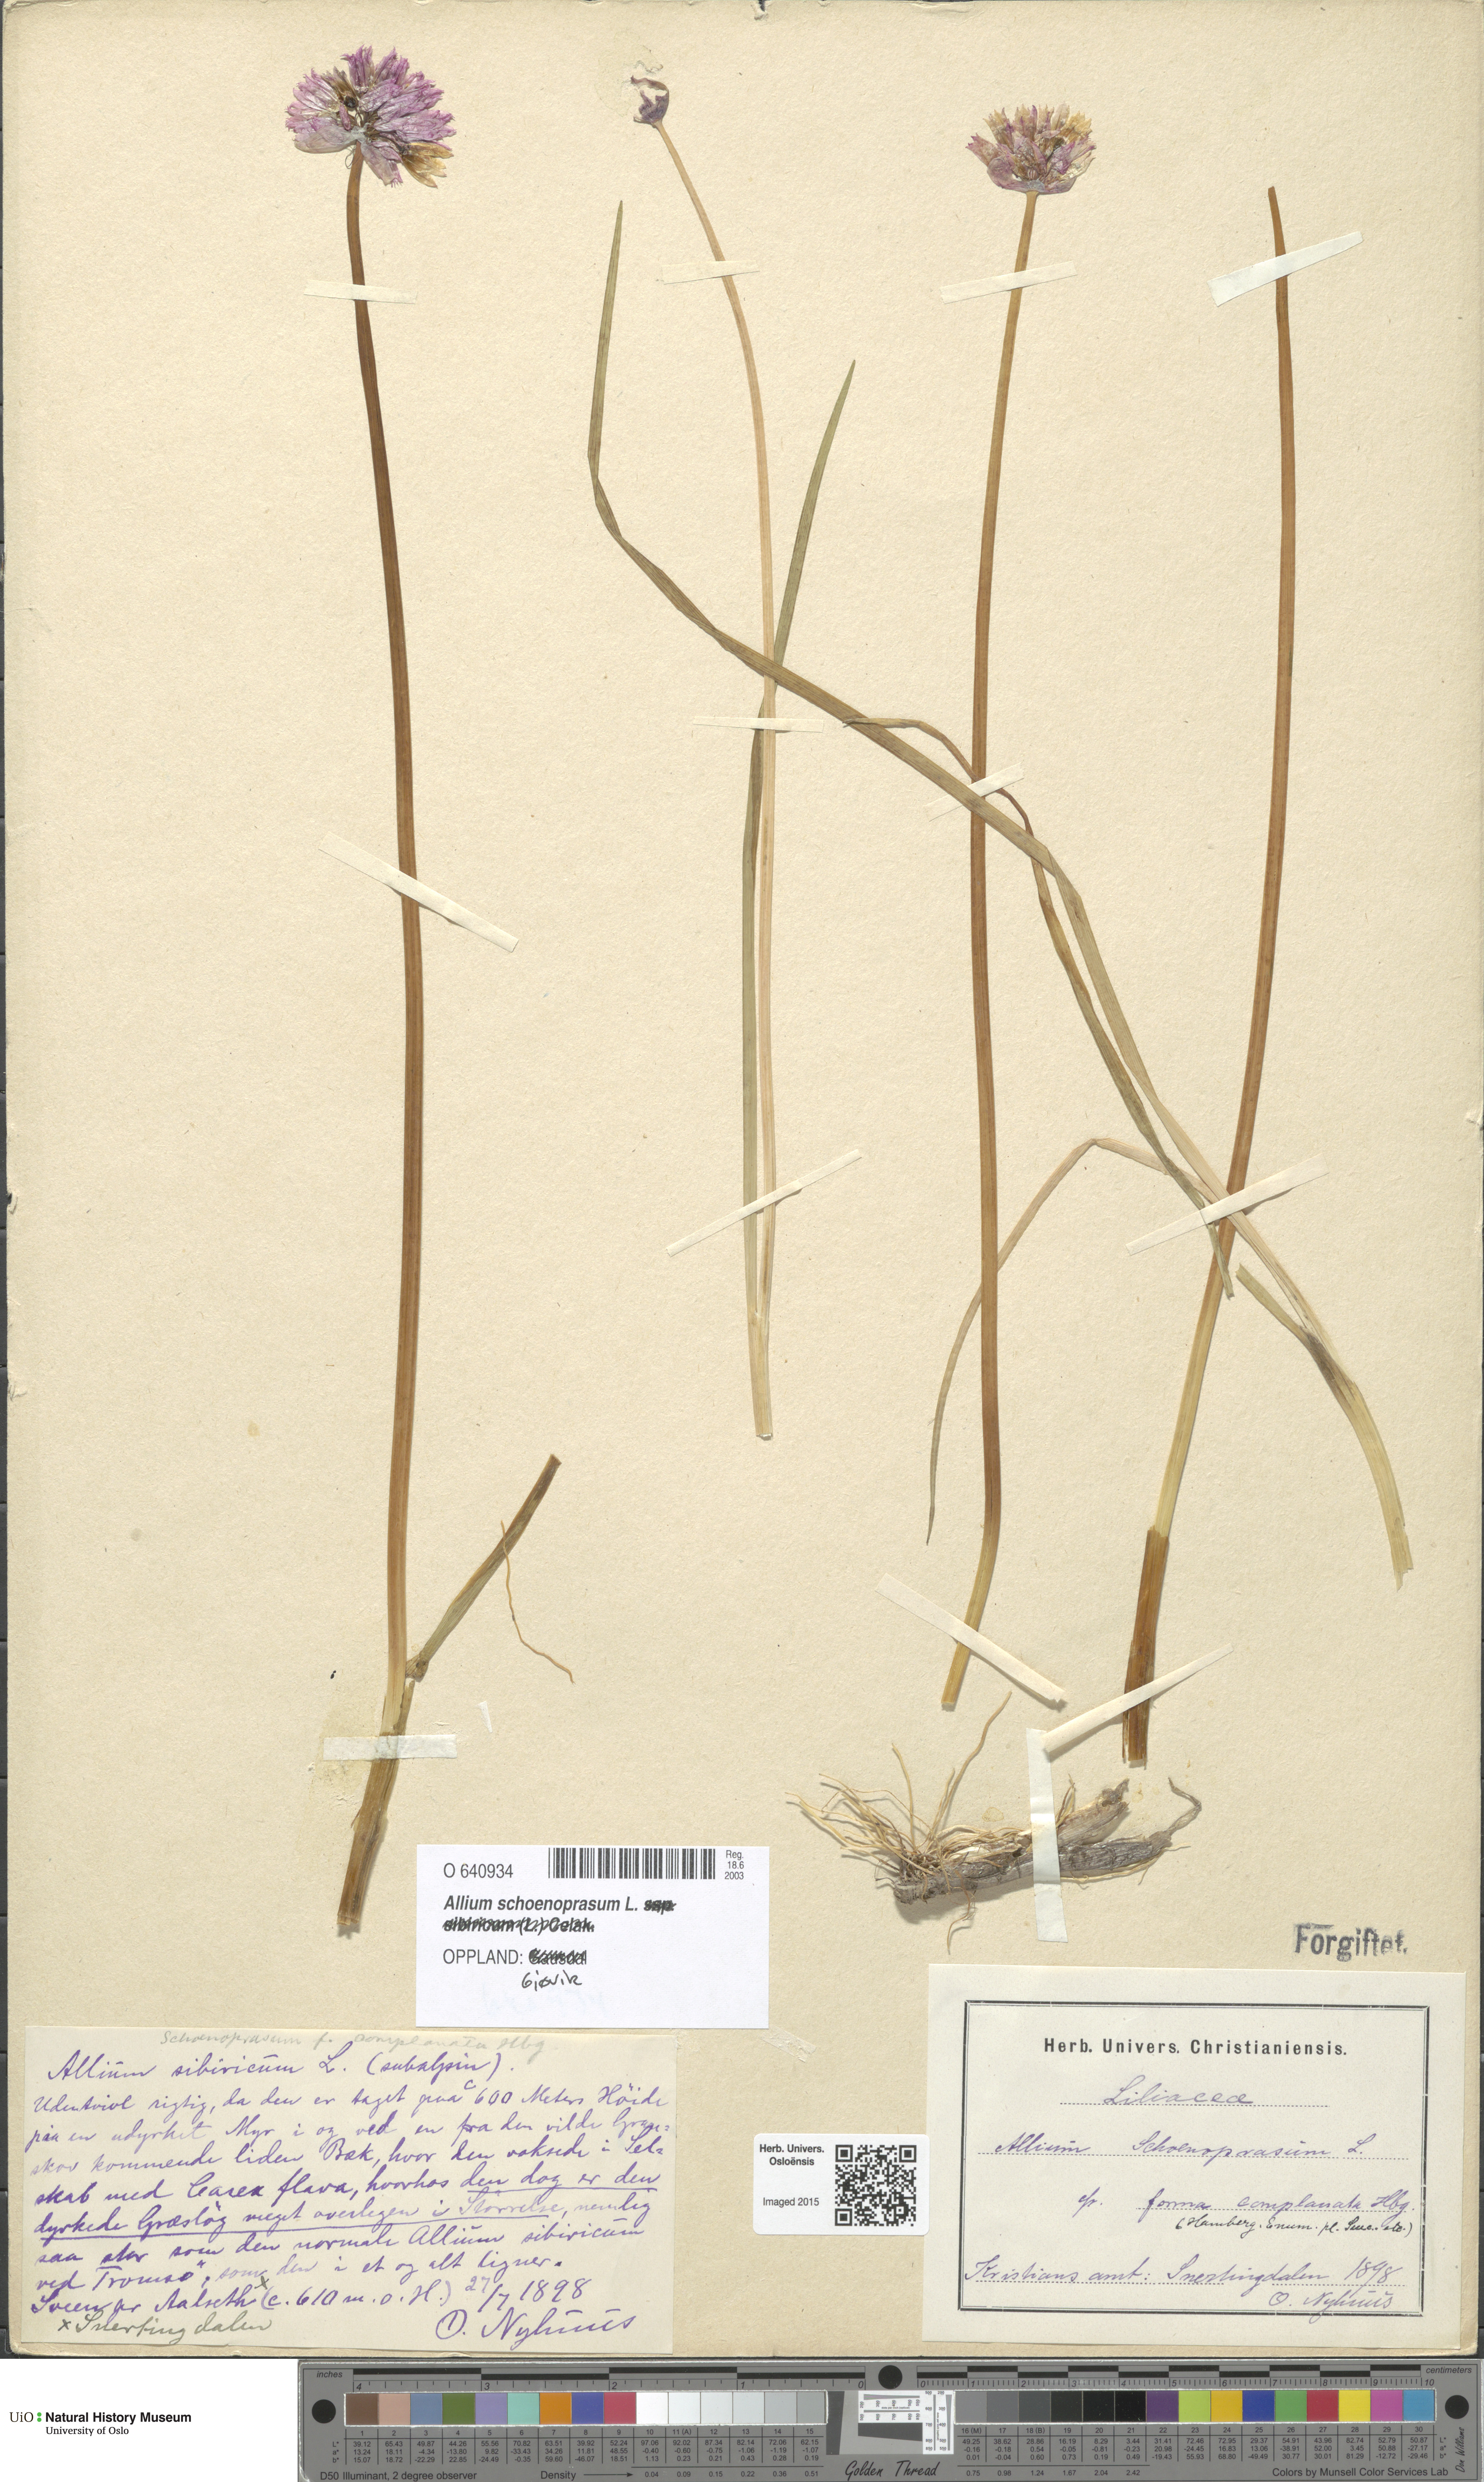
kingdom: Plantae
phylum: Tracheophyta
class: Liliopsida
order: Asparagales
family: Amaryllidaceae
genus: Allium
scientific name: Allium schoenoprasum
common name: Chives
